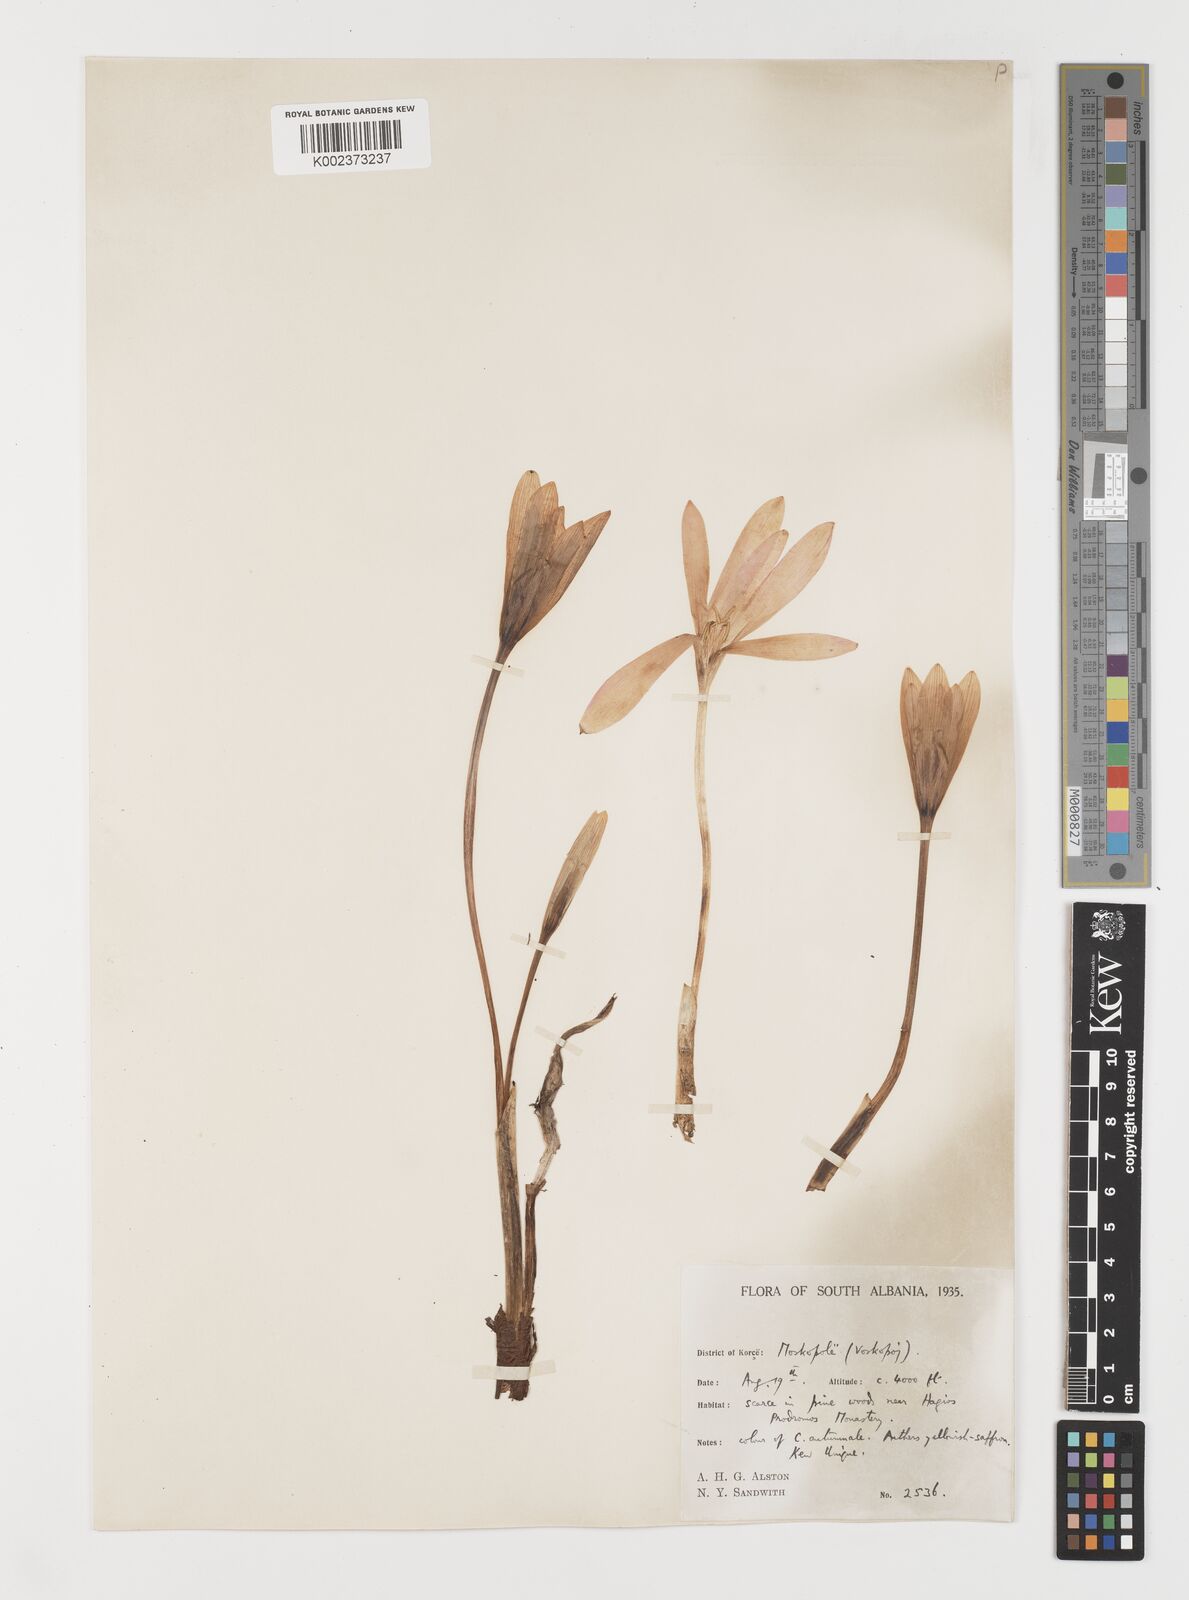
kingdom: Plantae
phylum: Tracheophyta
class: Liliopsida
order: Liliales
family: Colchicaceae
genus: Colchicum
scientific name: Colchicum autumnale
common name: Autumn crocus
